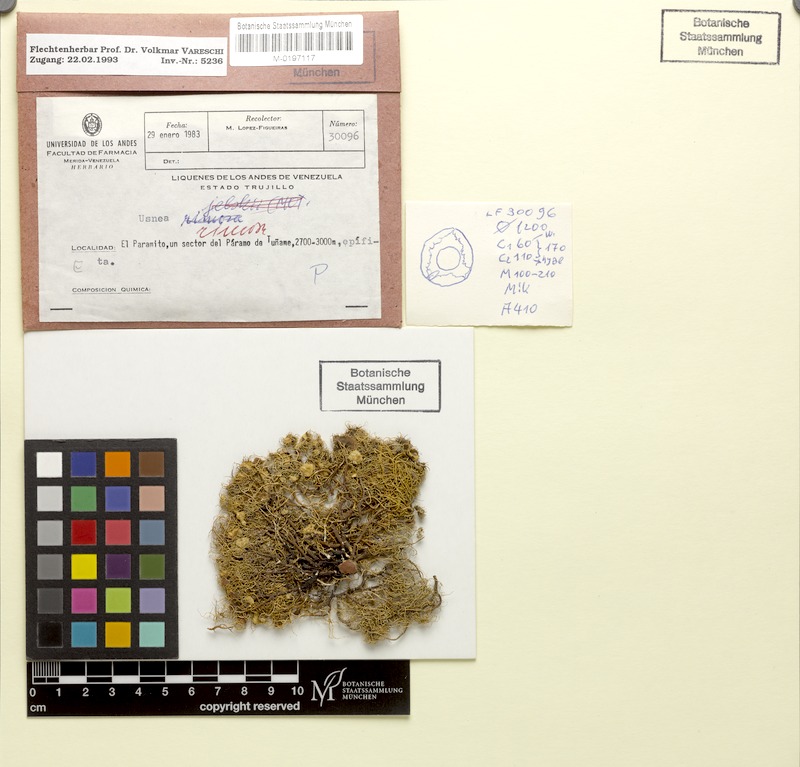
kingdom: Fungi
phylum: Ascomycota
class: Lecanoromycetes
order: Lecanorales
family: Parmeliaceae
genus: Usnea
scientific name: Usnea
